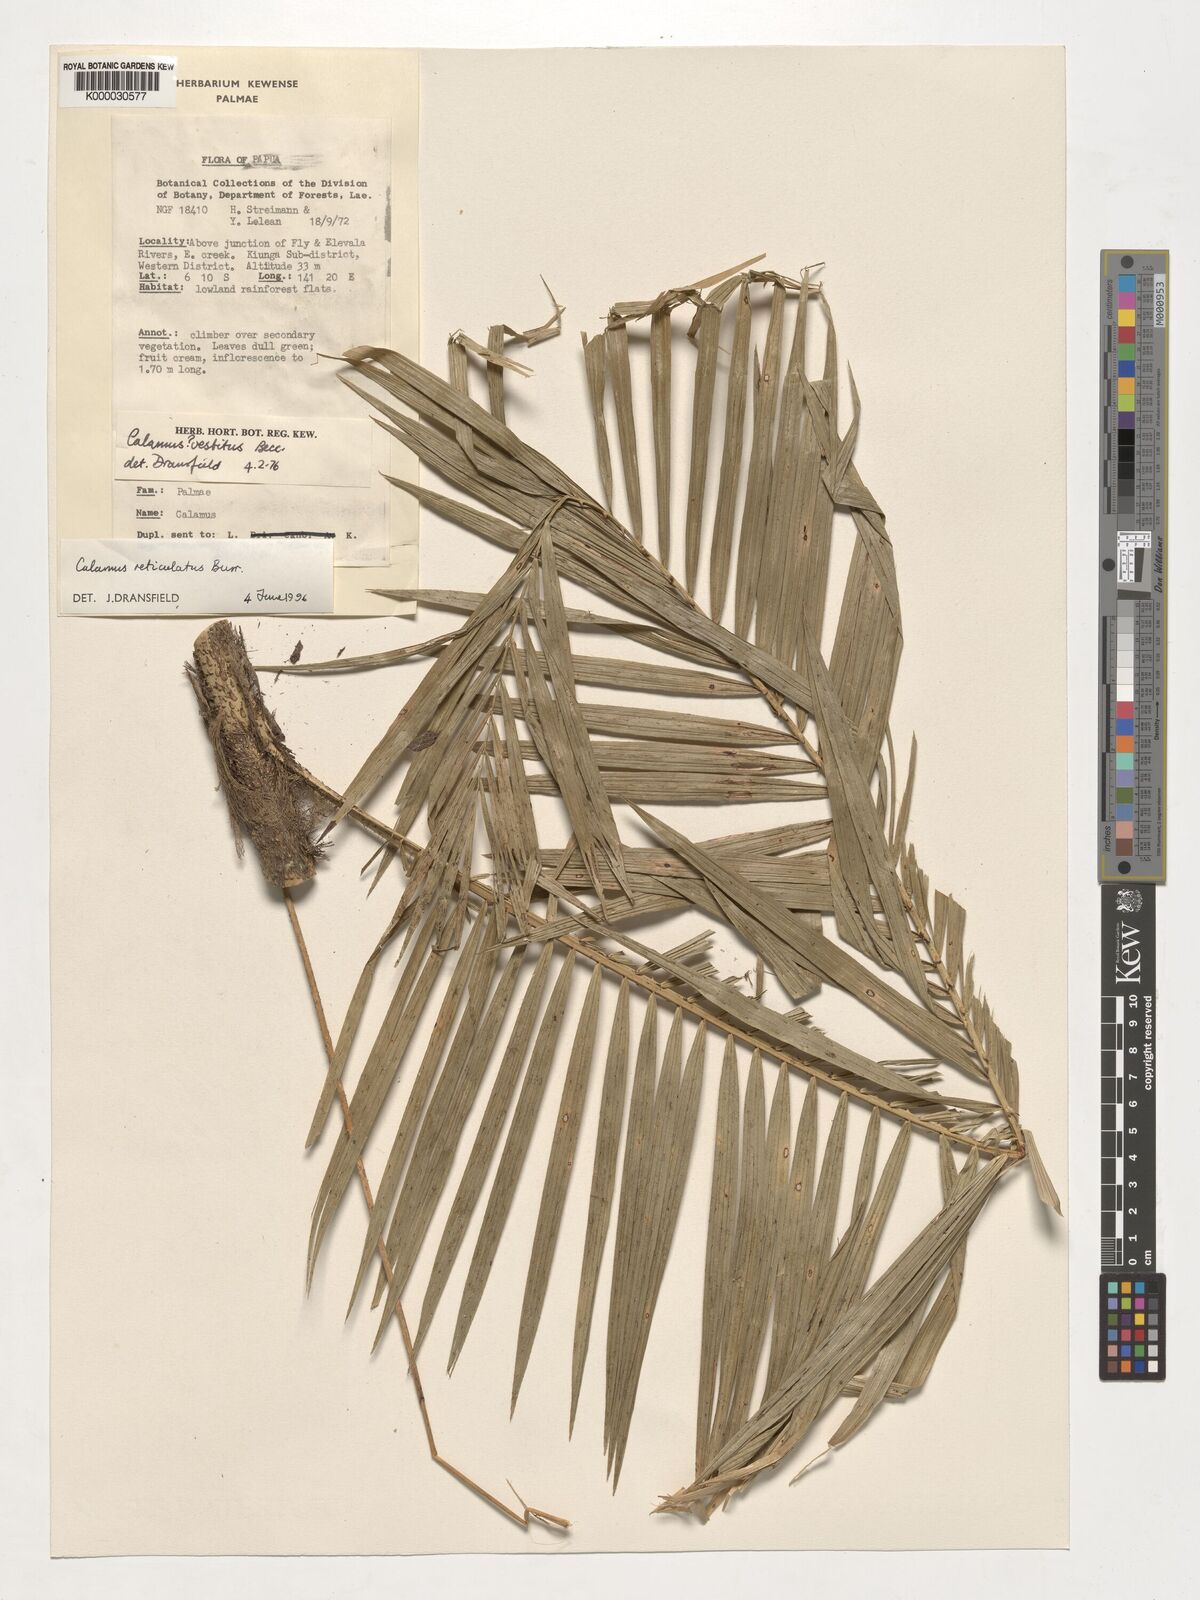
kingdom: Plantae
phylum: Tracheophyta
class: Liliopsida
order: Arecales
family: Arecaceae
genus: Calamus
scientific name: Calamus reticulatus
